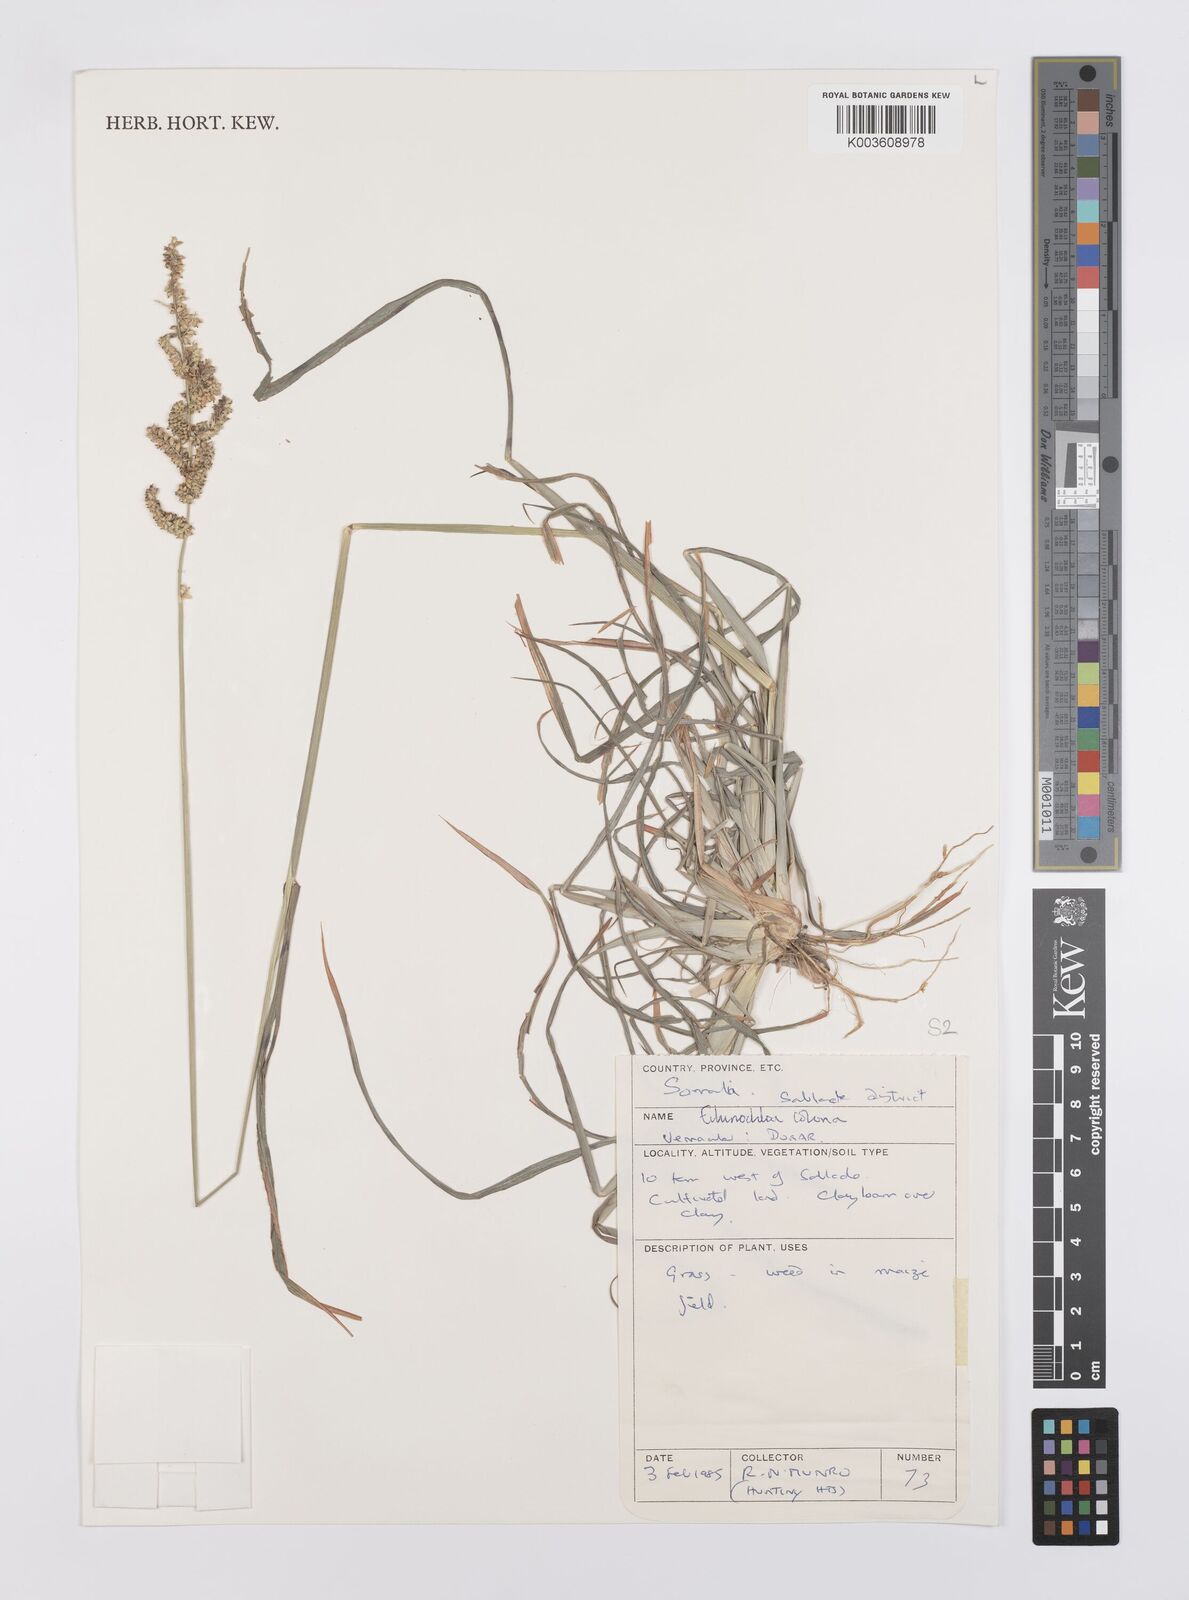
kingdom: Plantae
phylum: Tracheophyta
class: Liliopsida
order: Poales
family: Poaceae
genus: Echinochloa
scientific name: Echinochloa colonum
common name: Jungle rice
